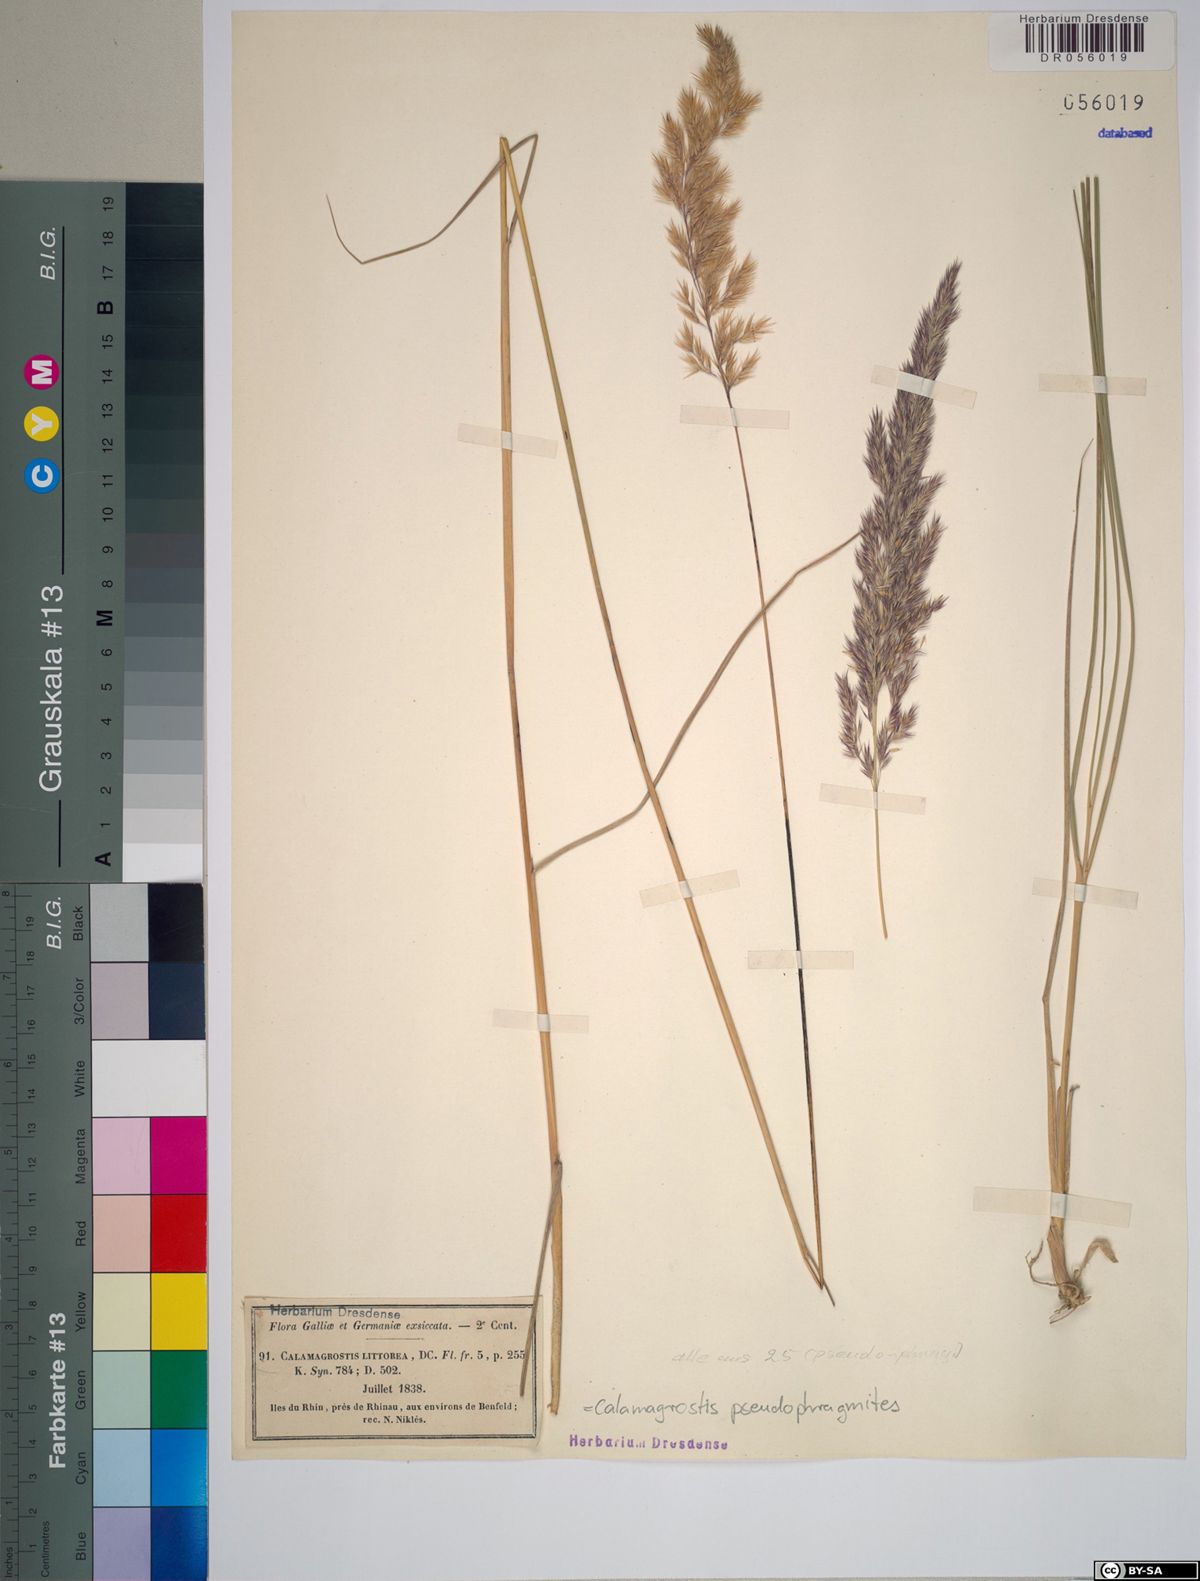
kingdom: Plantae
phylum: Tracheophyta
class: Liliopsida
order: Poales
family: Poaceae
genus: Calamagrostis
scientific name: Calamagrostis pseudophragmites
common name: Coastal small-reed
